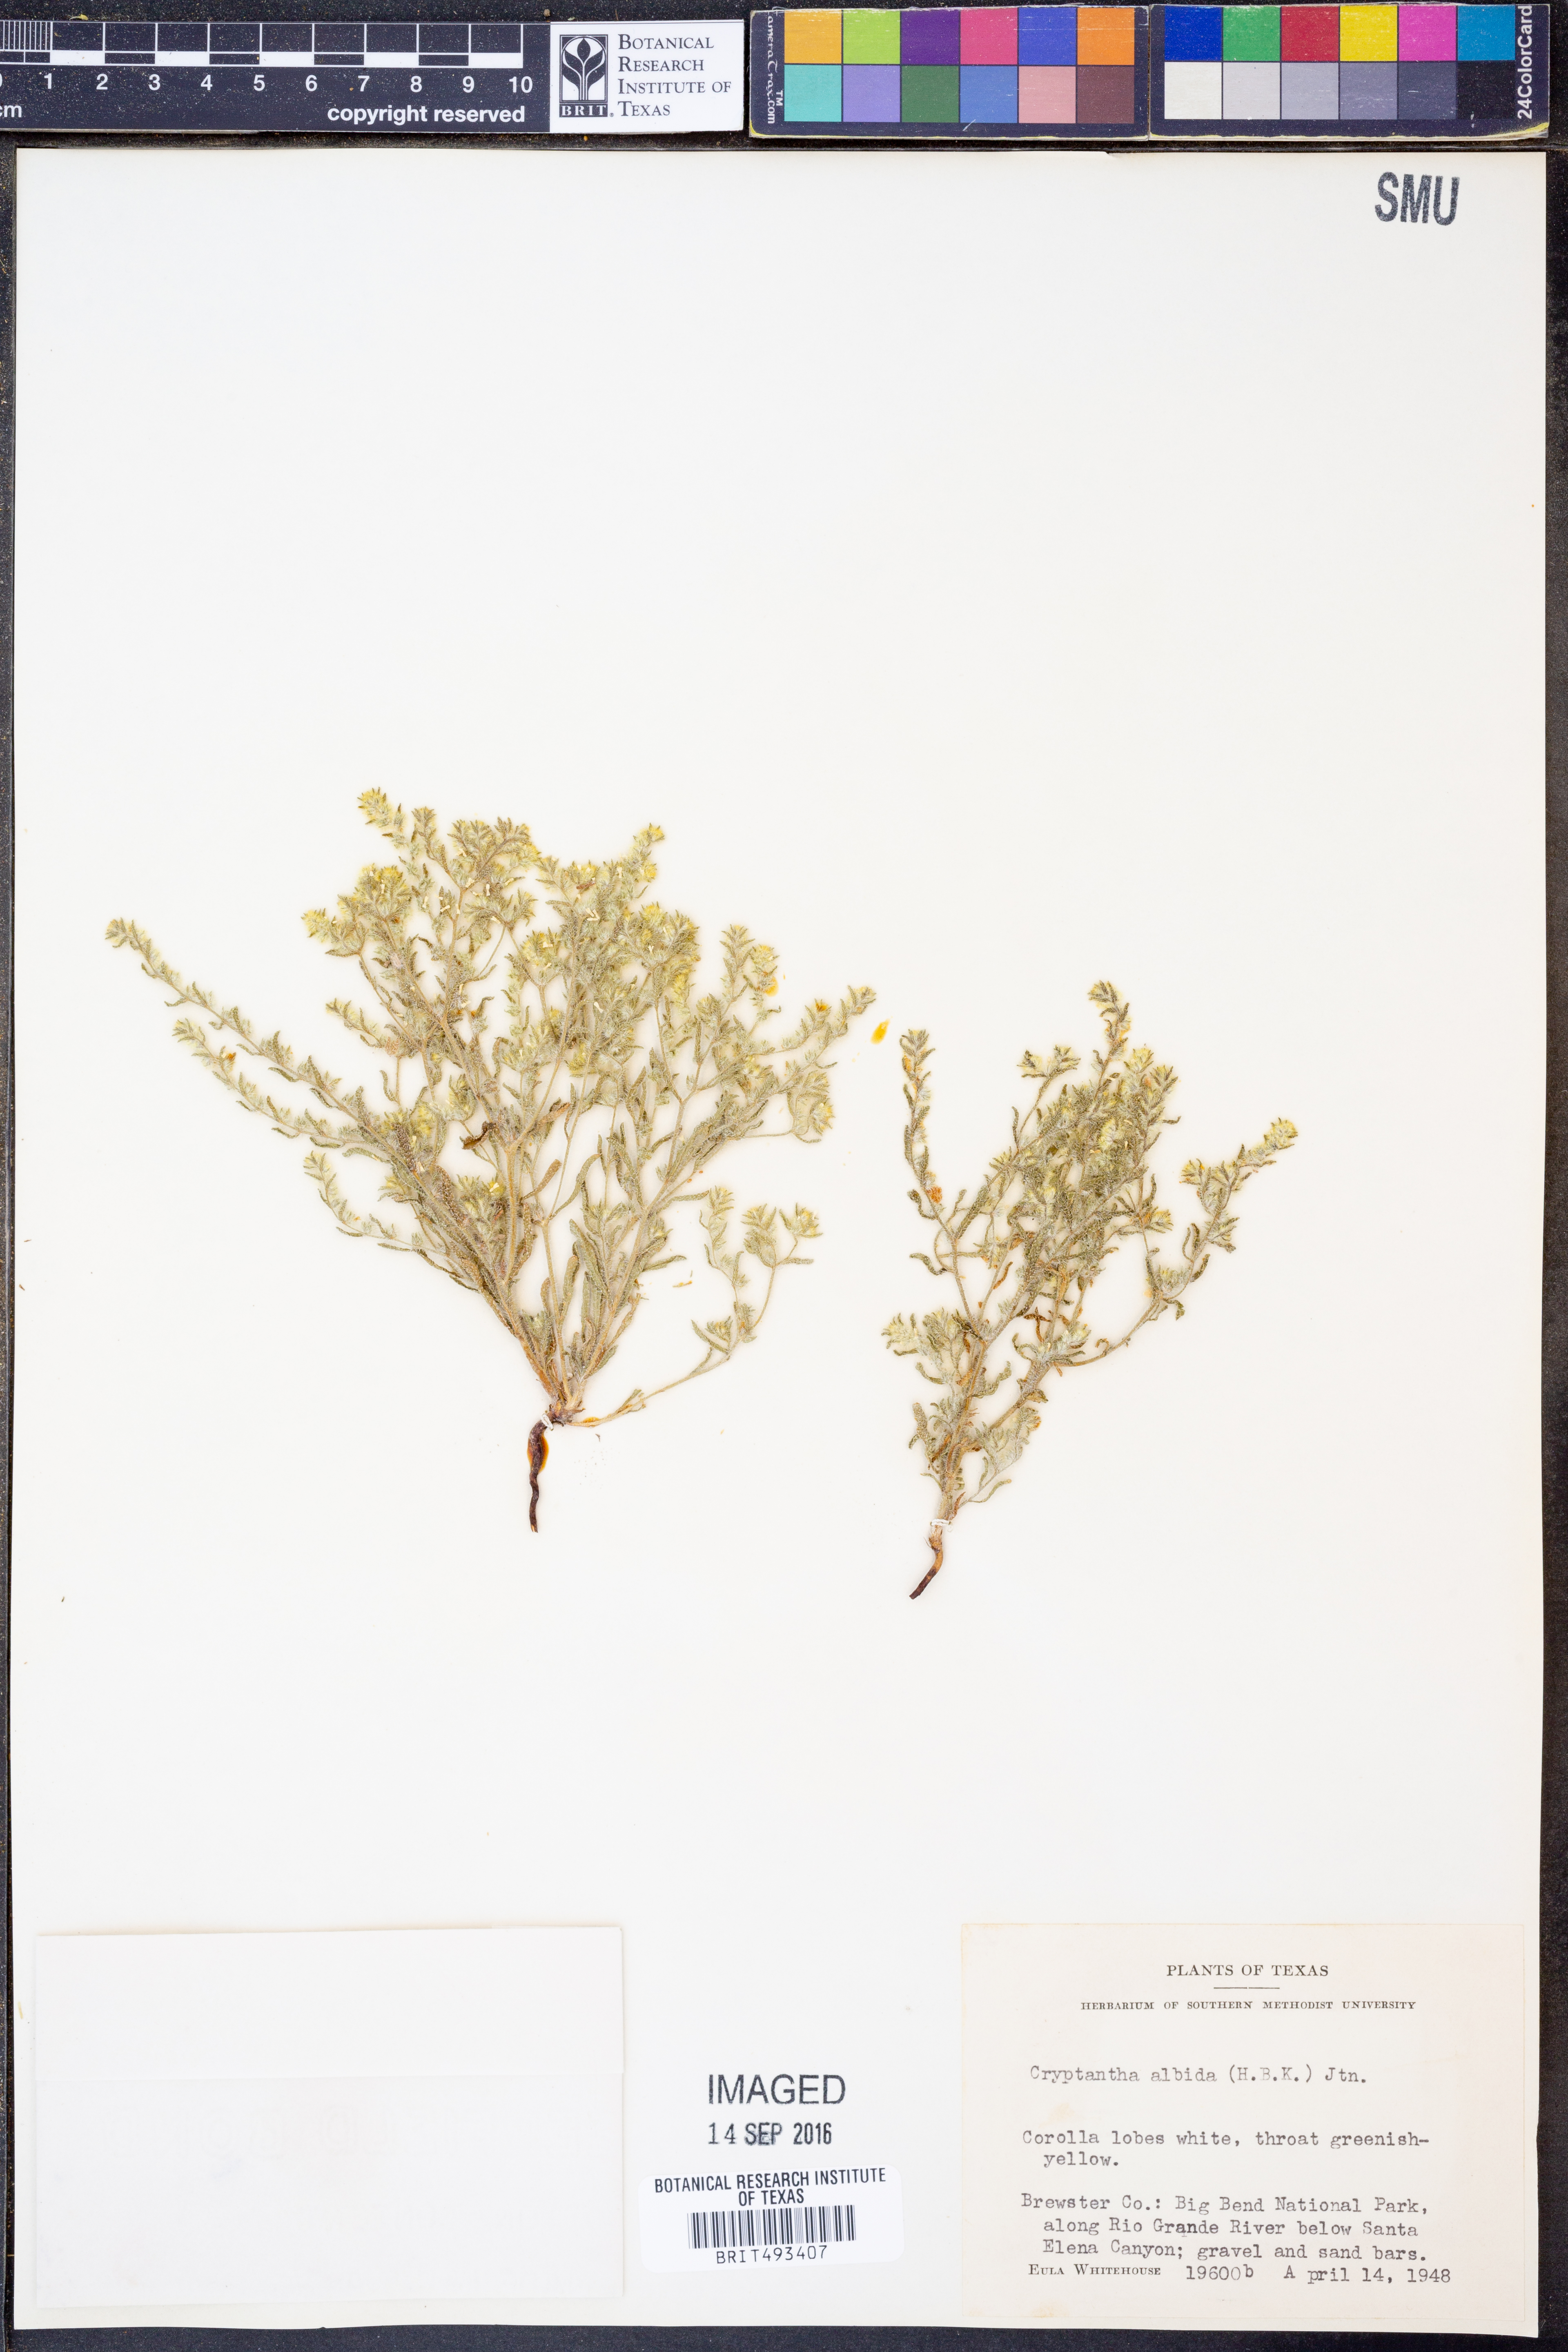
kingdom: Plantae
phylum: Tracheophyta
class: Magnoliopsida
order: Boraginales
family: Boraginaceae
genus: Johnstonella
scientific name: Johnstonella albida
